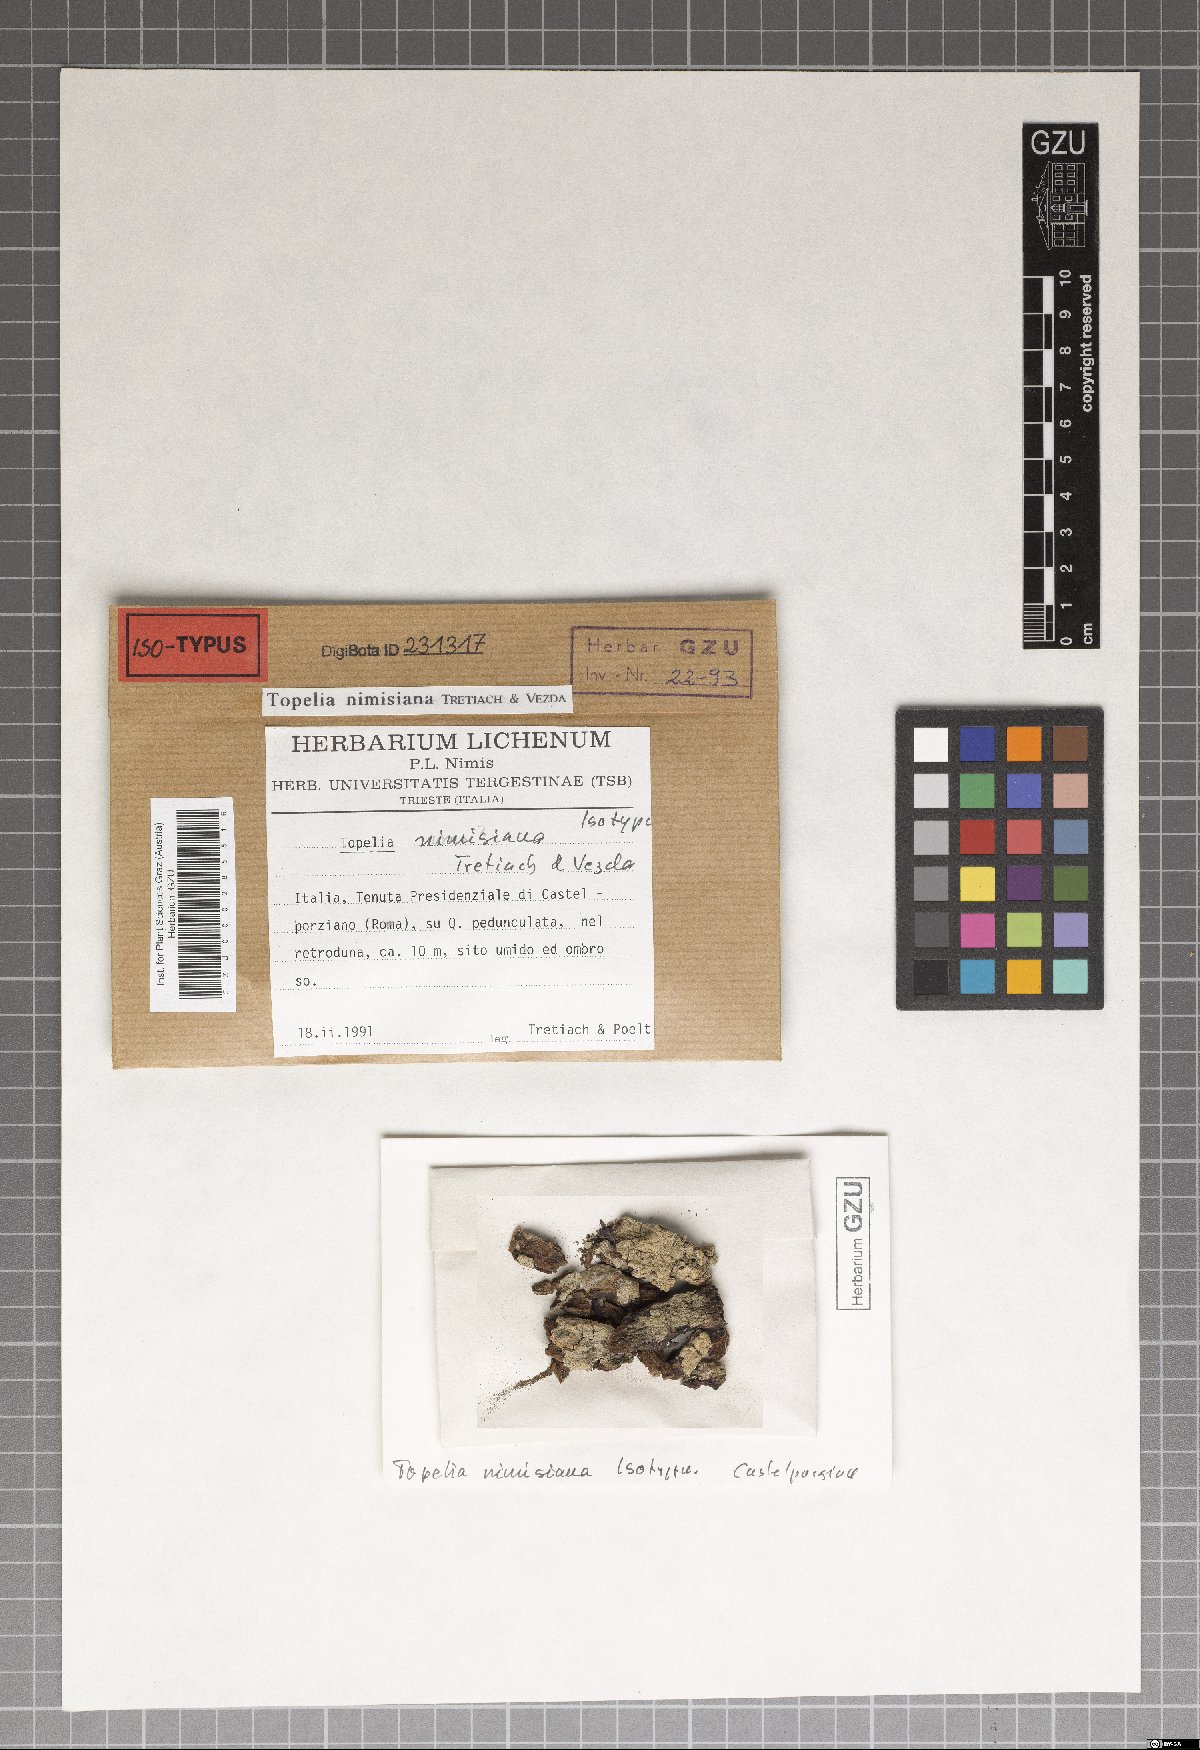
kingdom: Fungi
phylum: Ascomycota
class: Lecanoromycetes
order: Ostropales
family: Stictidaceae
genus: Topelia
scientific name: Topelia nimisiana
